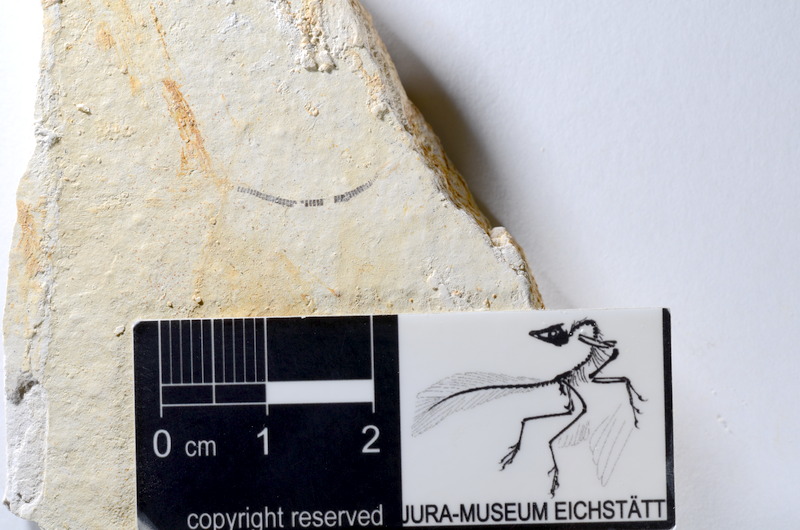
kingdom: Animalia
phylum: Chordata
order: Salmoniformes
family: Orthogonikleithridae
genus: Orthogonikleithrus
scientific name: Orthogonikleithrus hoelli
